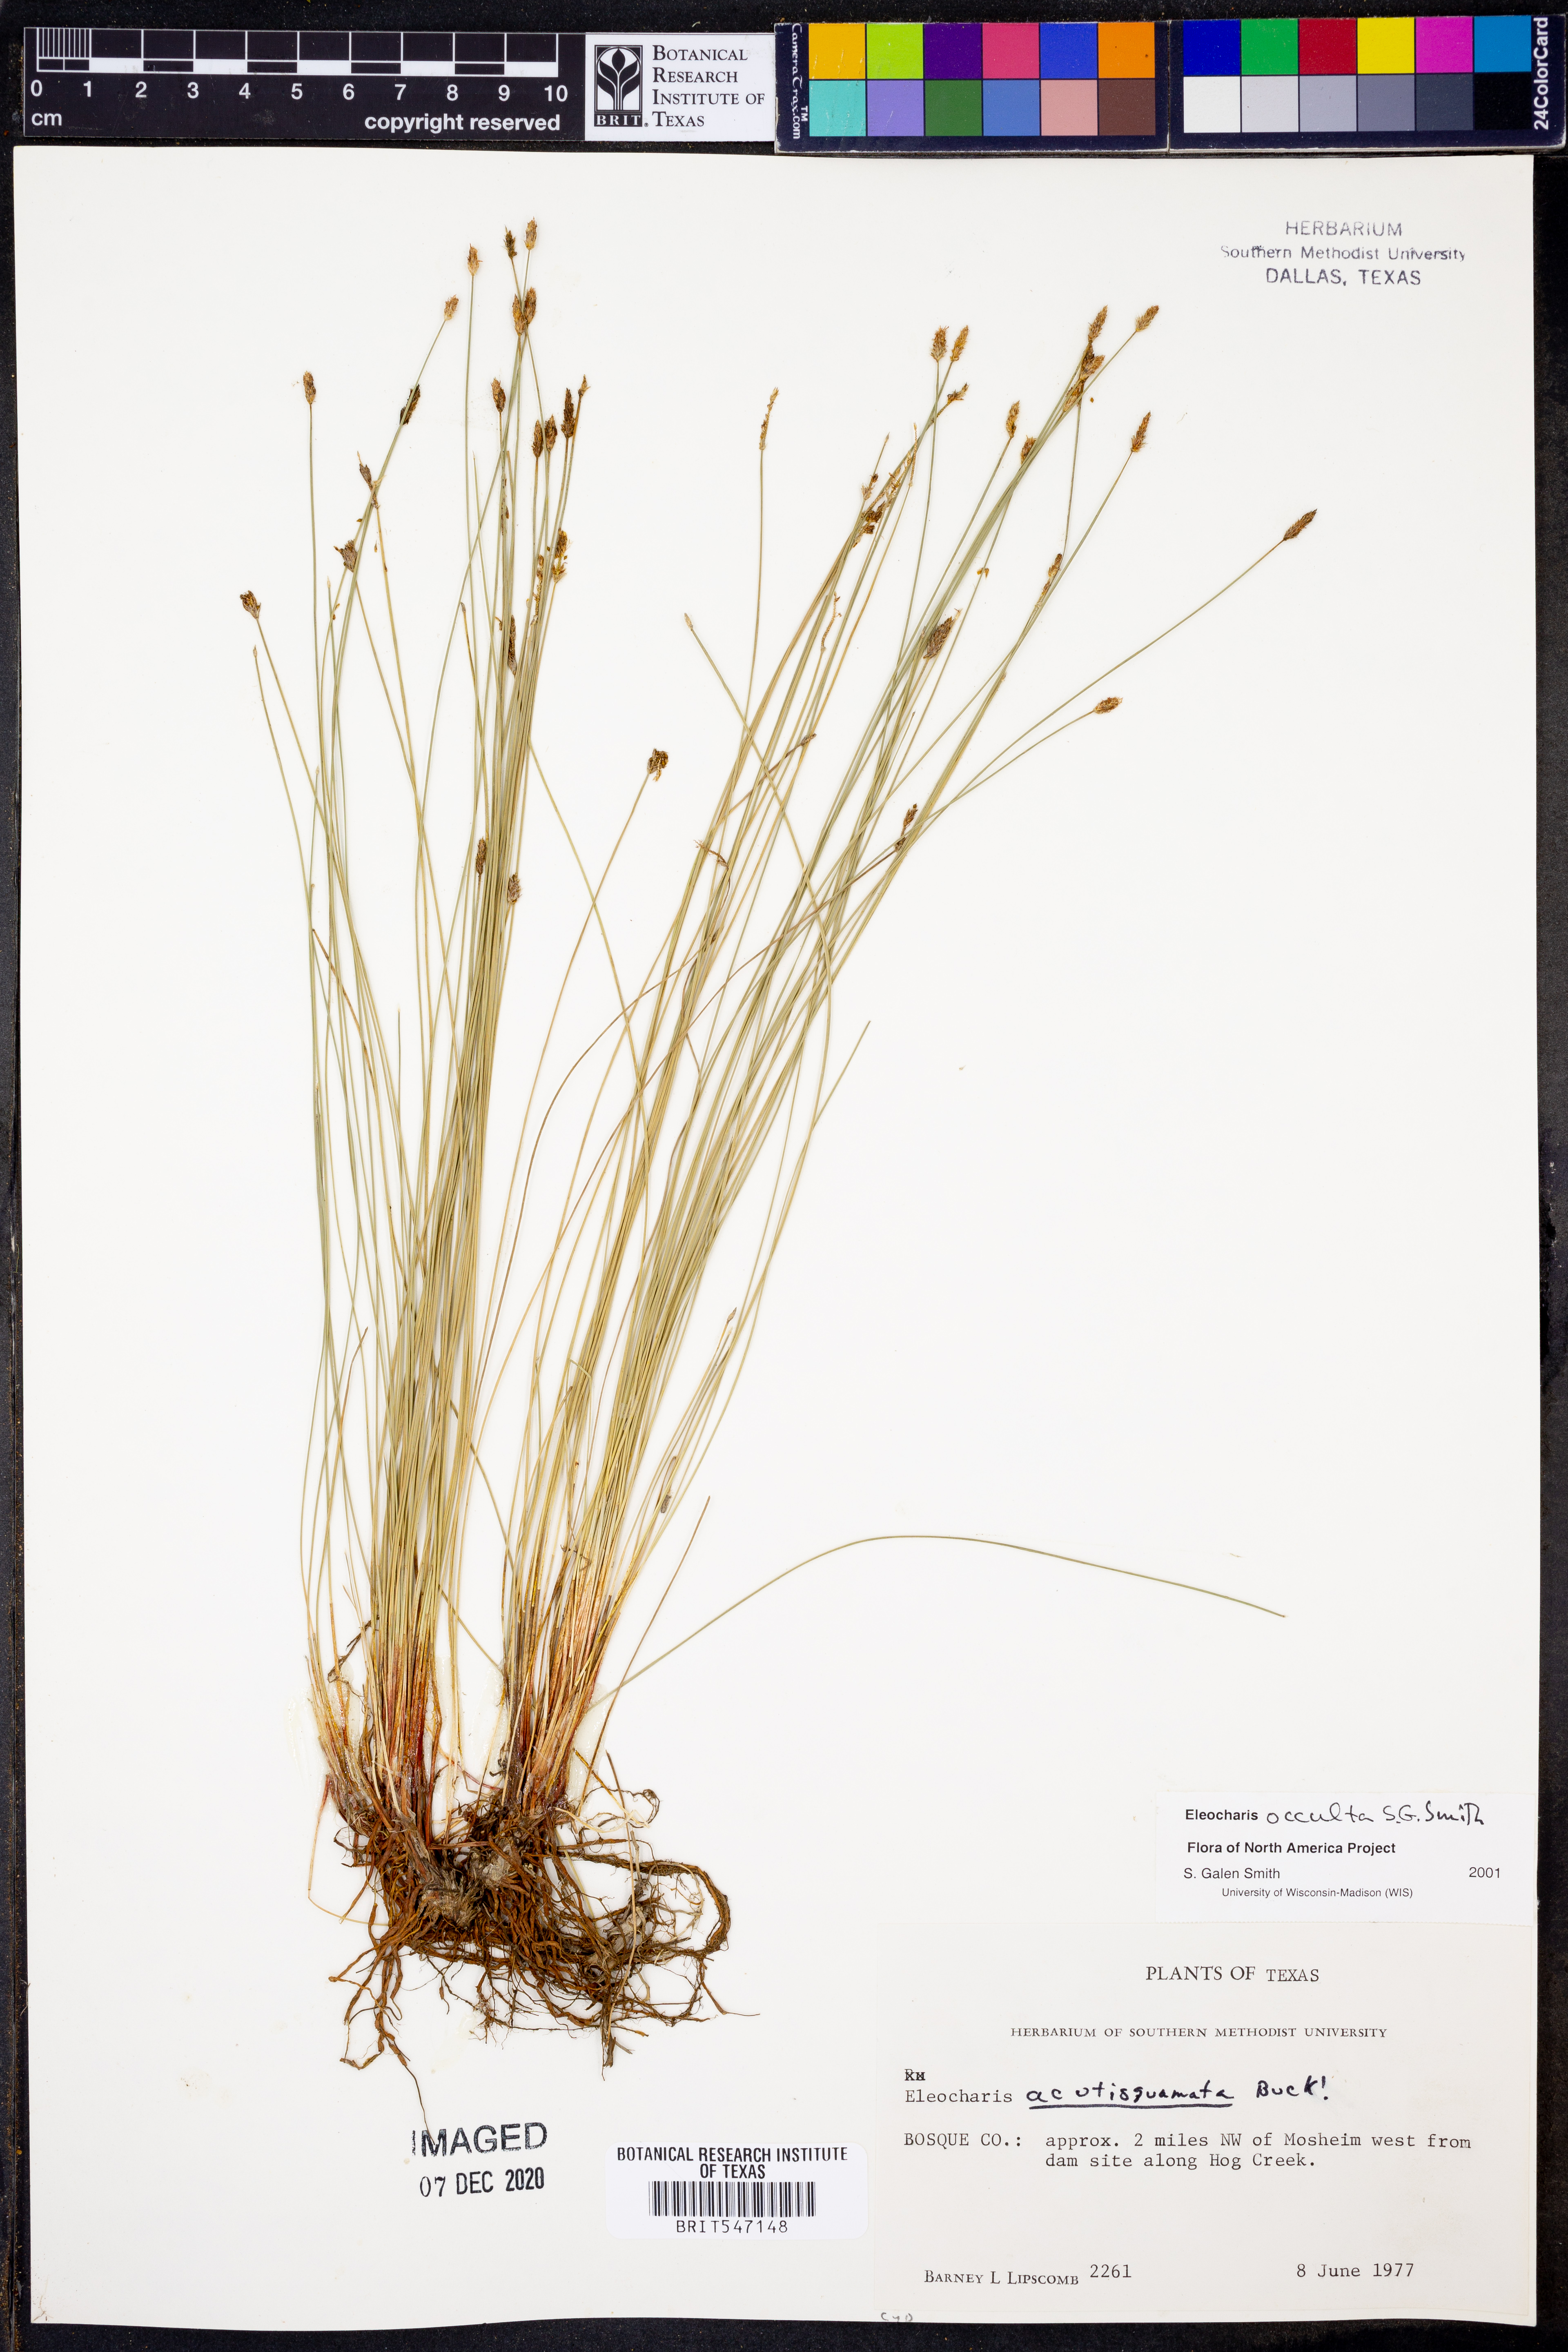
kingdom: Plantae
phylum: Tracheophyta
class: Liliopsida
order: Poales
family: Cyperaceae
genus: Eleocharis
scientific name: Eleocharis occulta
